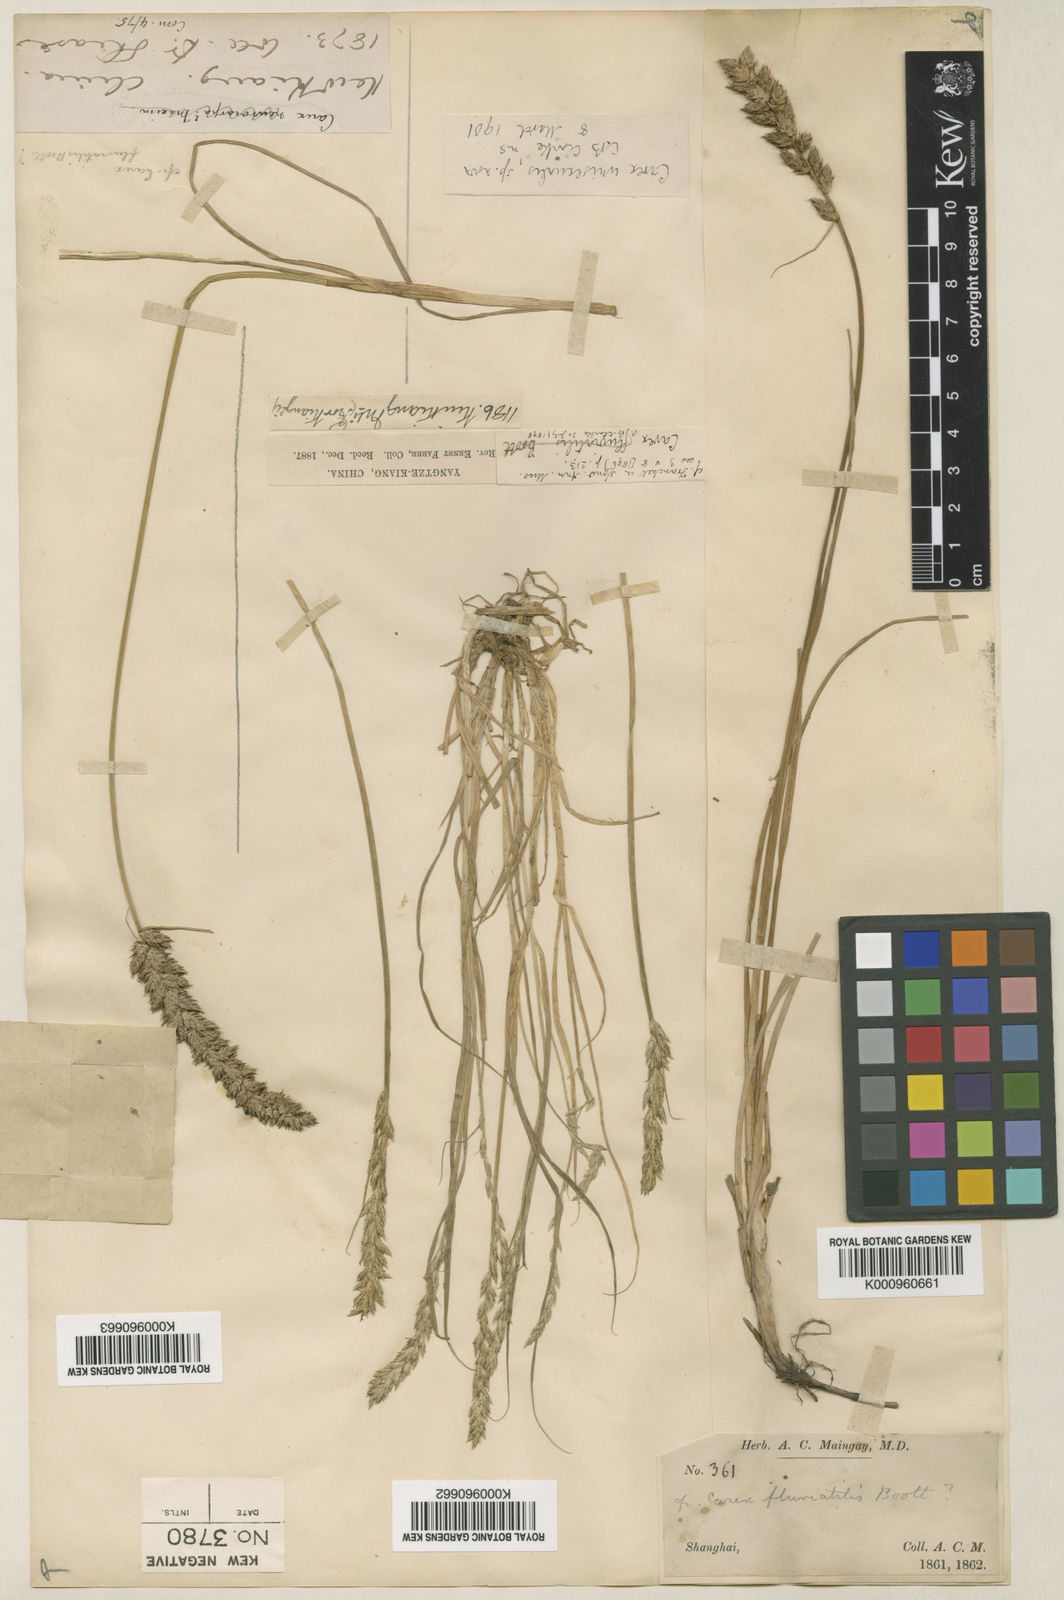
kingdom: Plantae
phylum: Tracheophyta
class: Liliopsida
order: Poales
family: Cyperaceae
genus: Carex
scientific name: Carex fluviatilis
